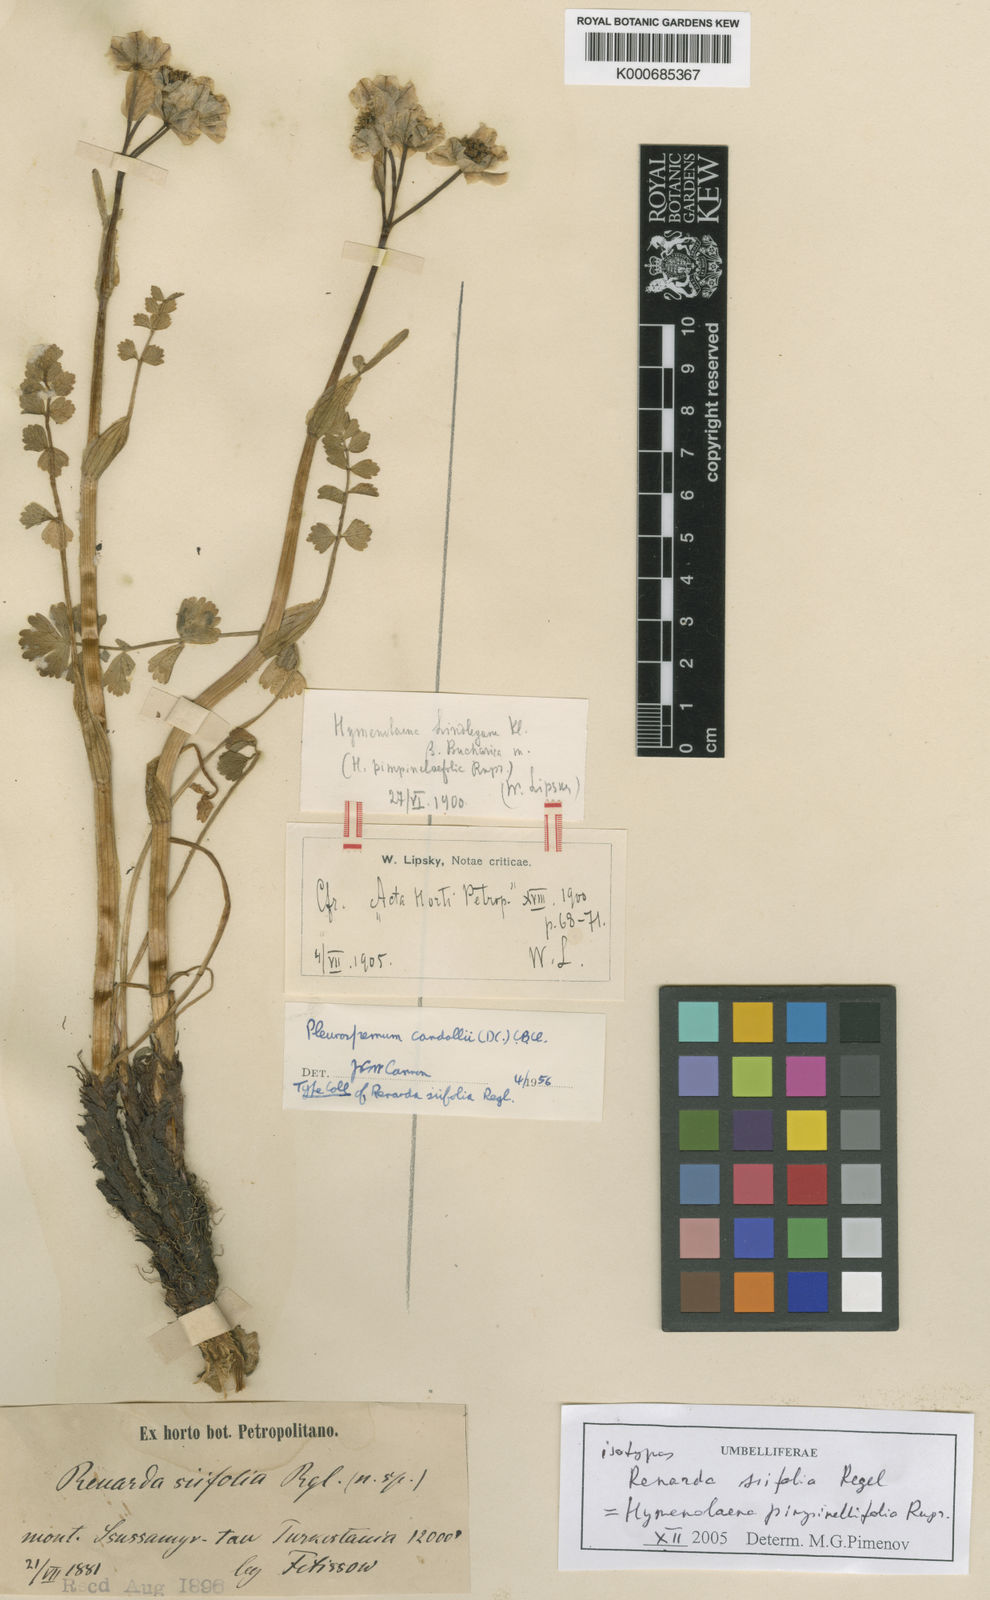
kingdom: Plantae
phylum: Tracheophyta
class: Magnoliopsida
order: Apiales
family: Apiaceae
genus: Hymenolaena
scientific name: Hymenolaena
